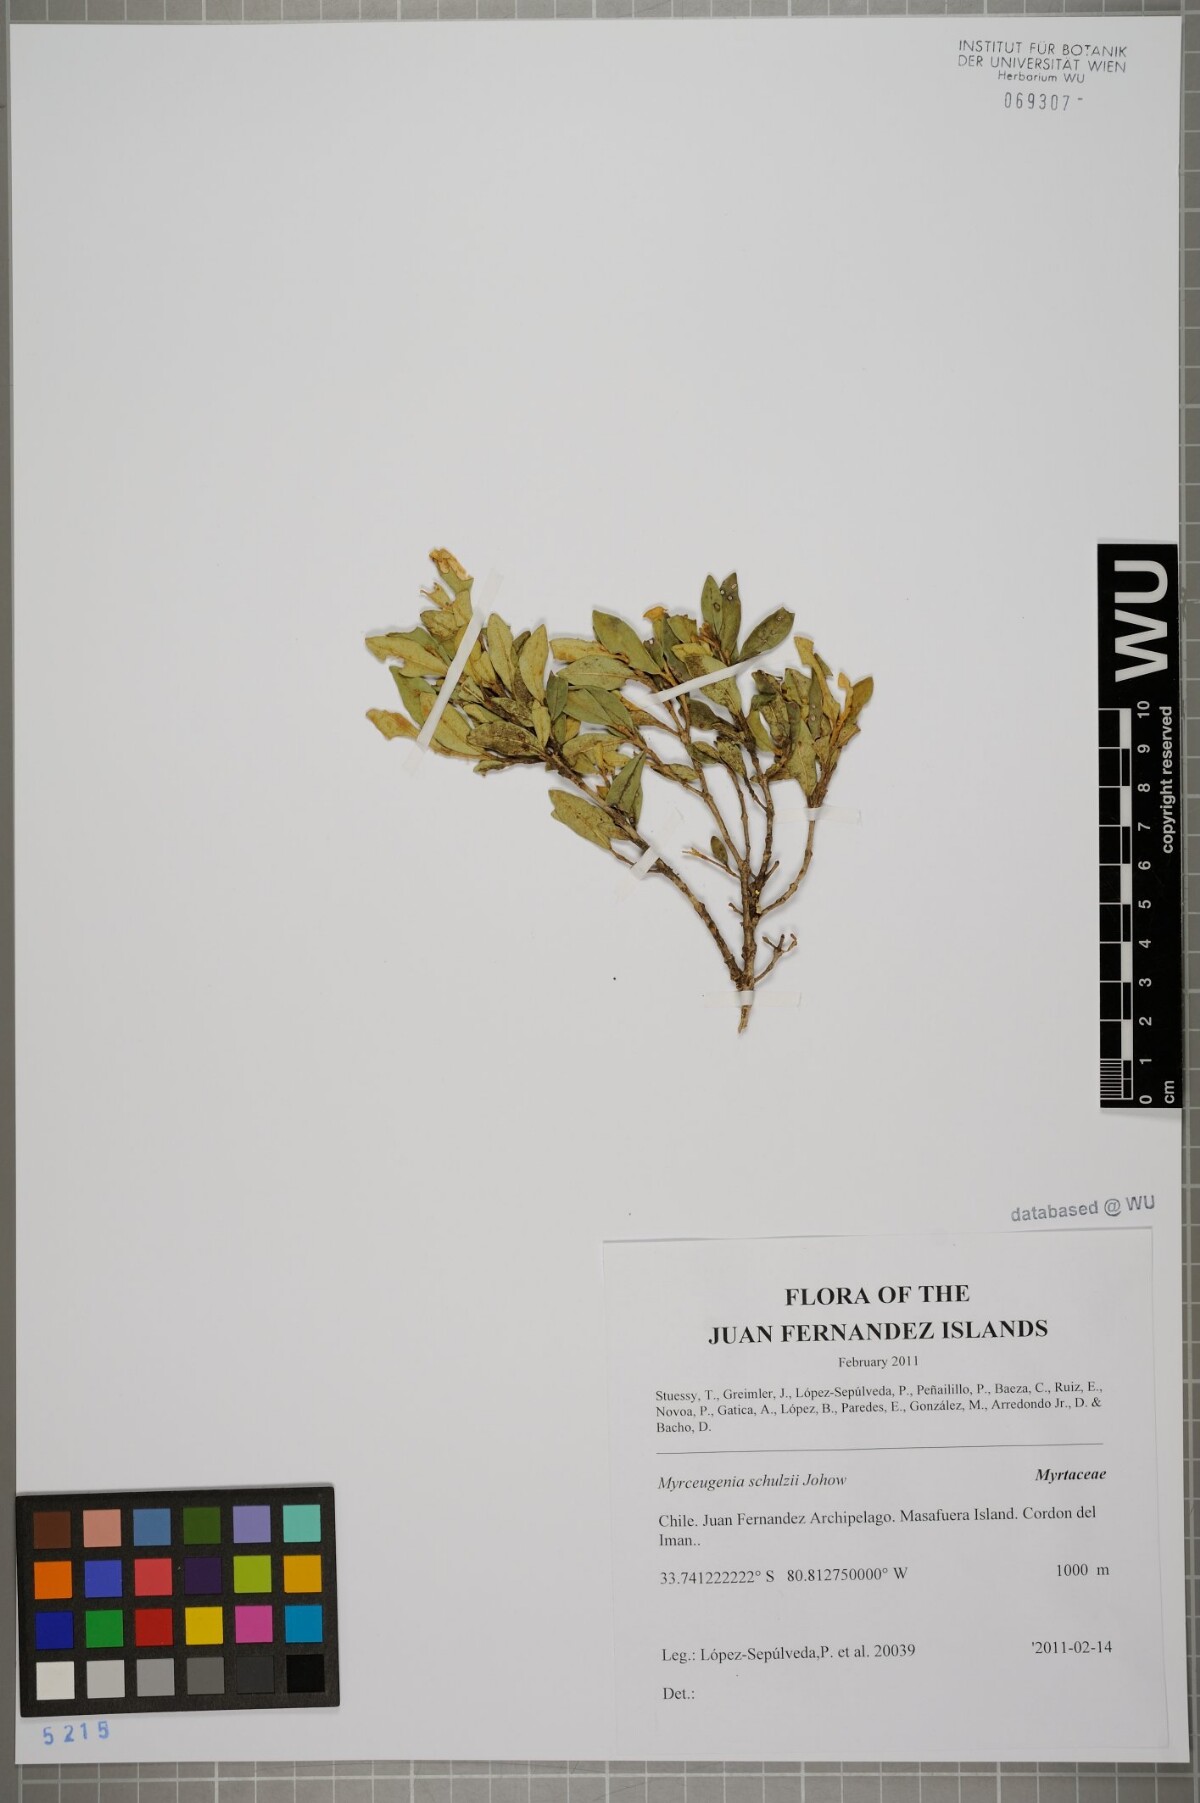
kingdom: Plantae
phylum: Tracheophyta
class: Magnoliopsida
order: Myrtales
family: Myrtaceae
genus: Myrceugenia
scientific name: Myrceugenia schulzei
